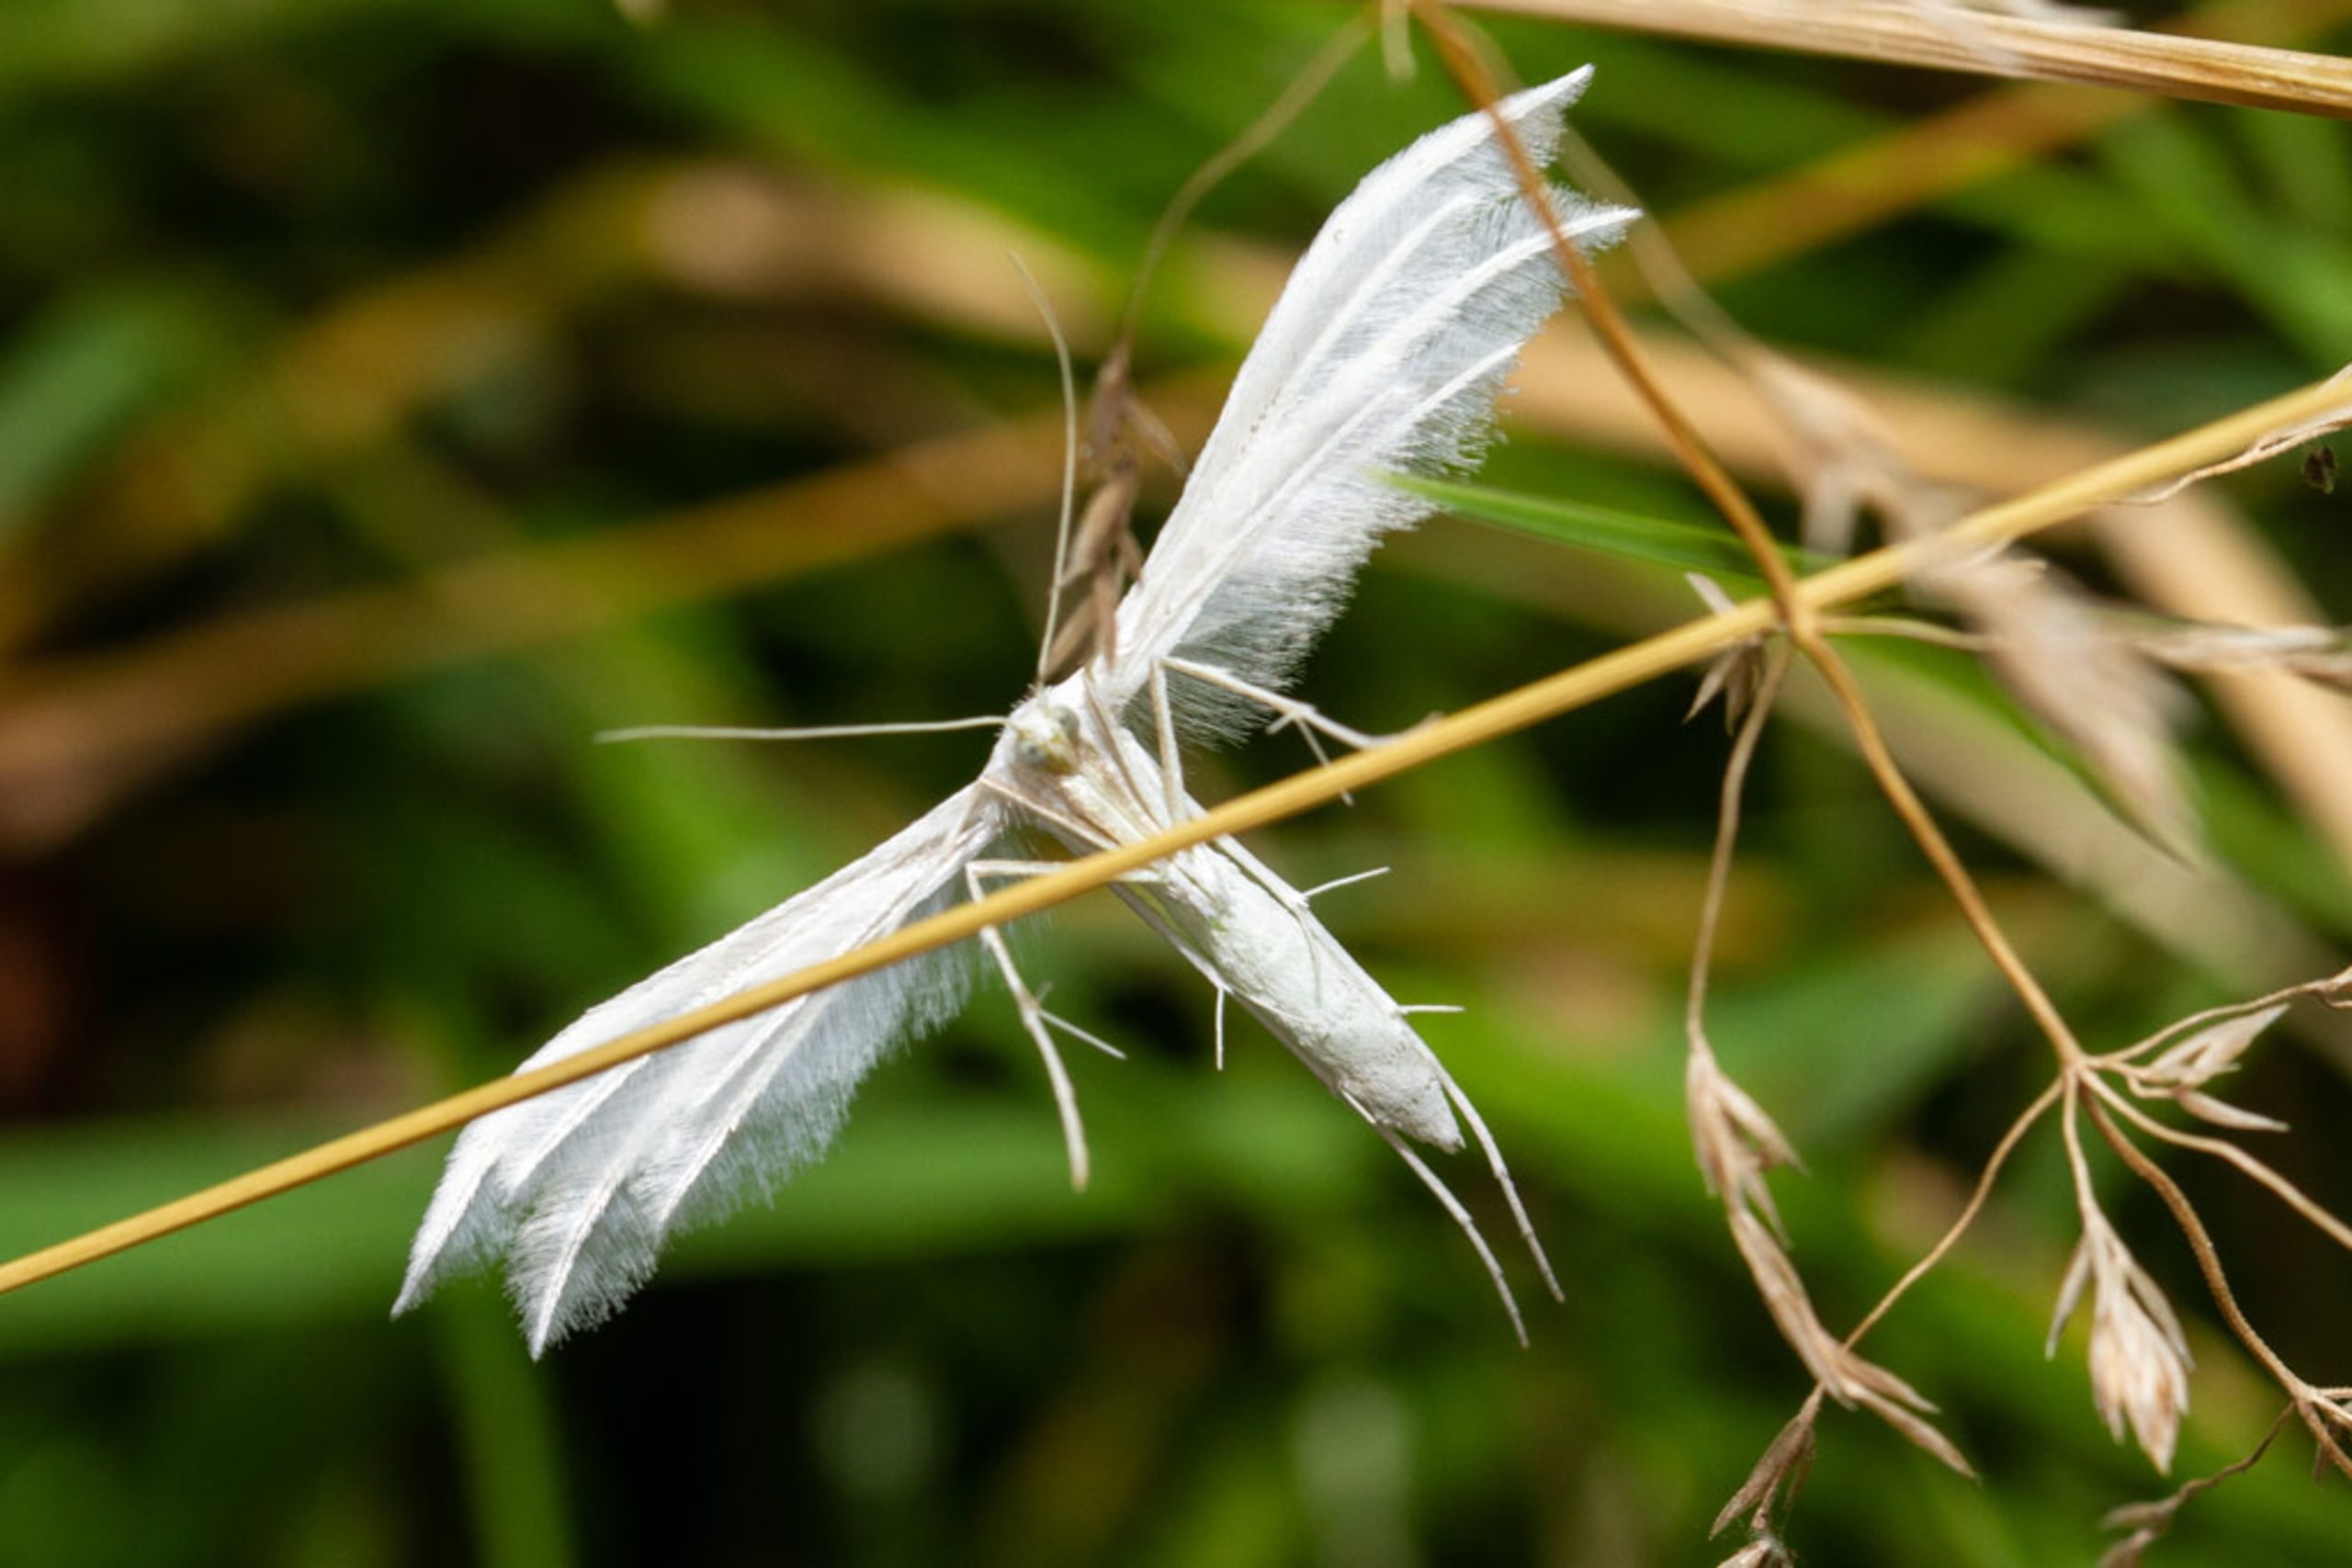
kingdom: Animalia
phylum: Arthropoda
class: Insecta
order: Lepidoptera
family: Pterophoridae
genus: Pterophorus
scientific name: Pterophorus pentadactyla
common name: Hvidt fjermøl
